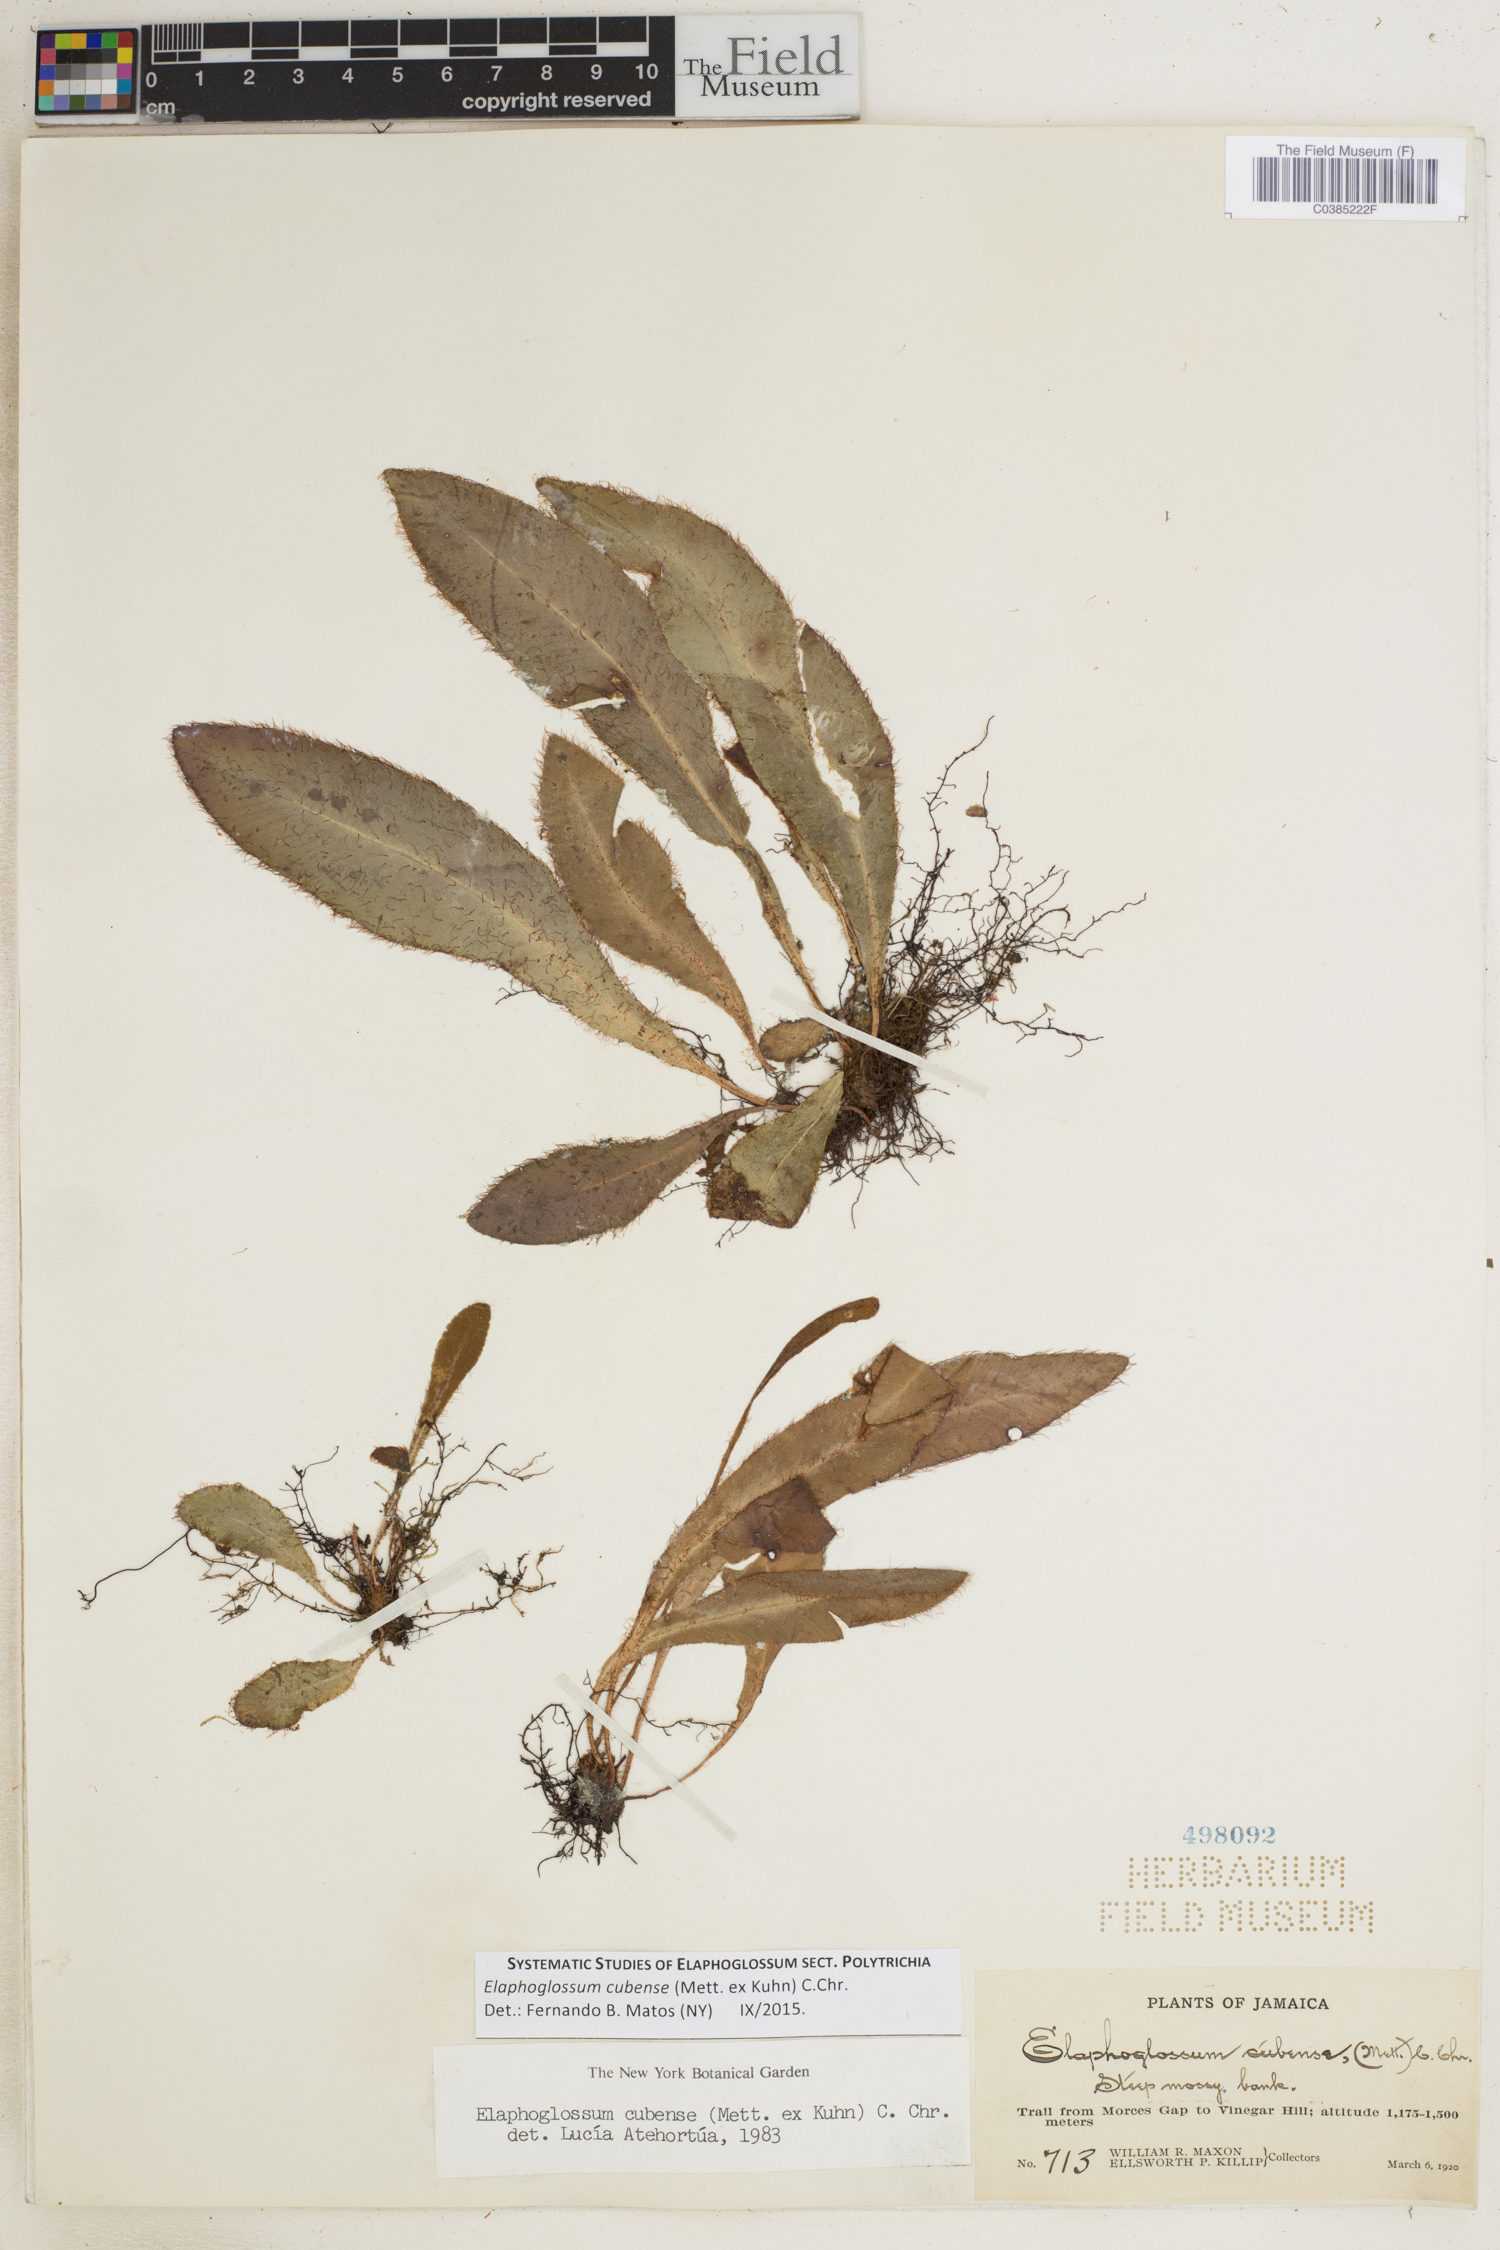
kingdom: Plantae
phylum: Tracheophyta
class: Polypodiopsida
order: Polypodiales
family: Dryopteridaceae
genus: Elaphoglossum
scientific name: Elaphoglossum cubense
